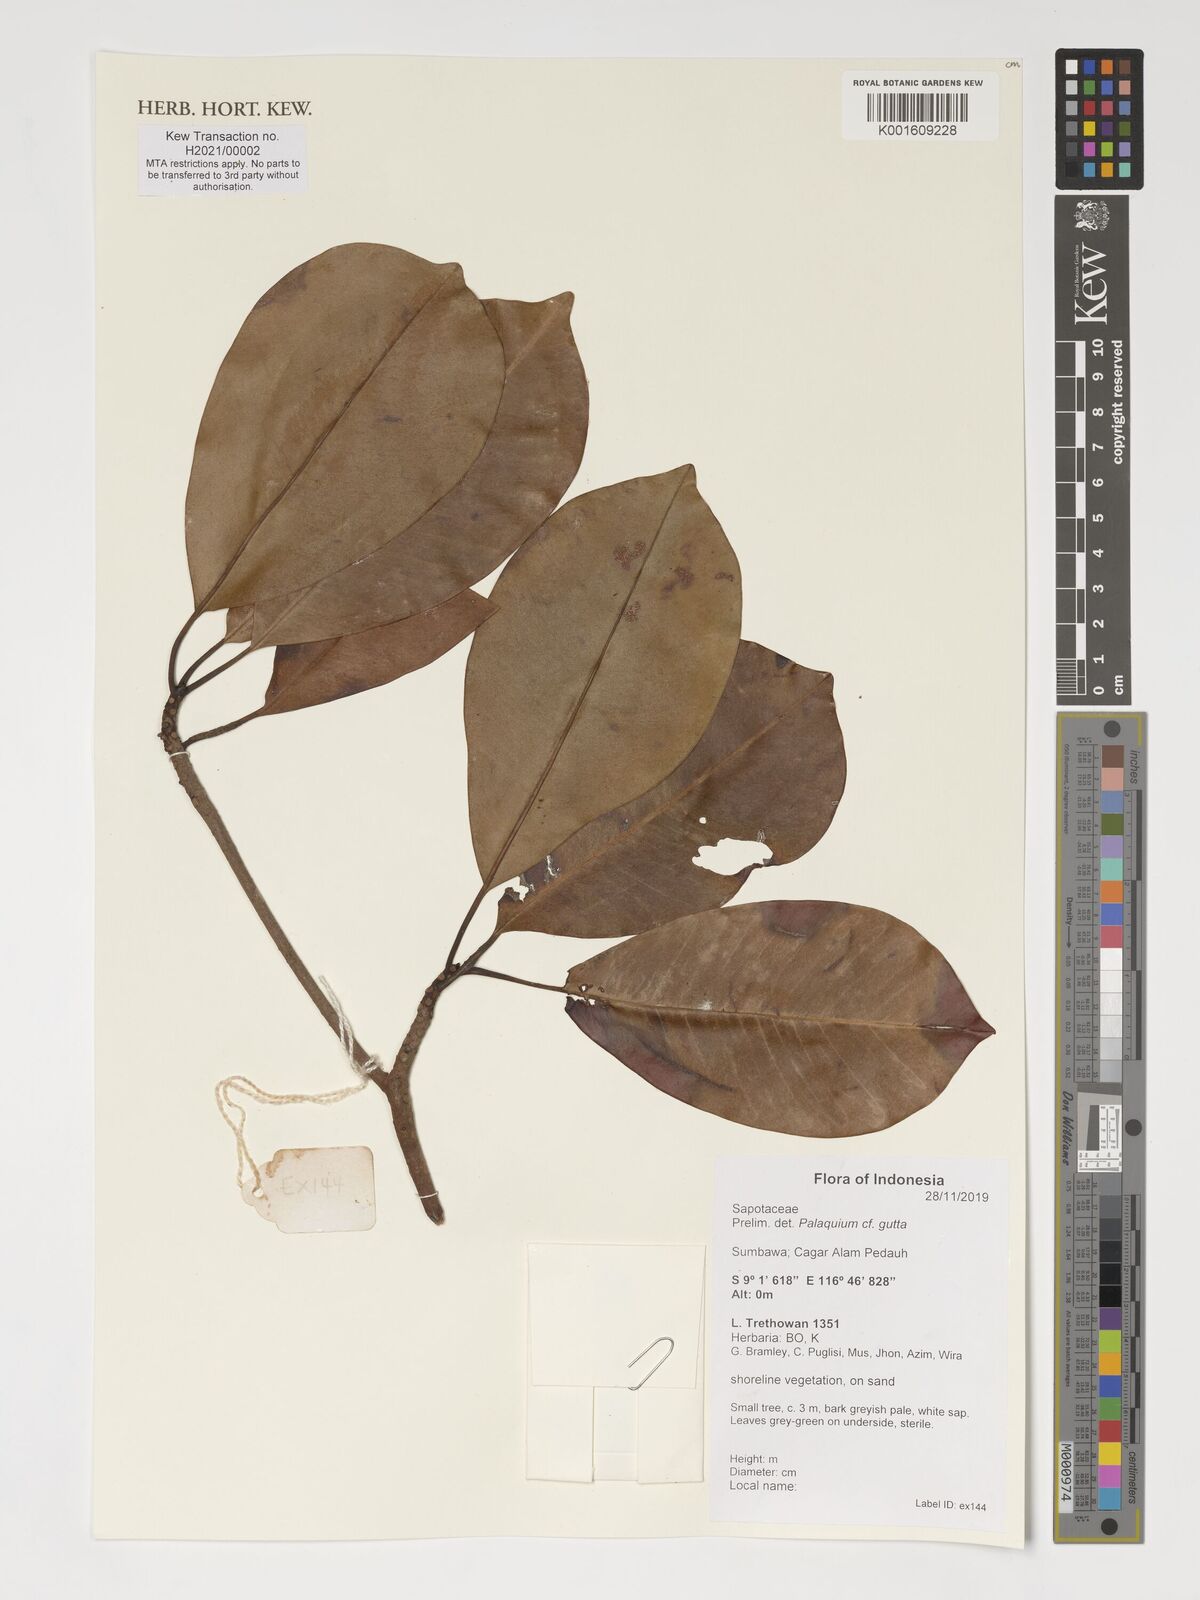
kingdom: Plantae
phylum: Tracheophyta
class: Magnoliopsida
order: Ericales
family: Sapotaceae
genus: Palaquium
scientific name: Palaquium gutta
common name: Gutta-percha-tree
